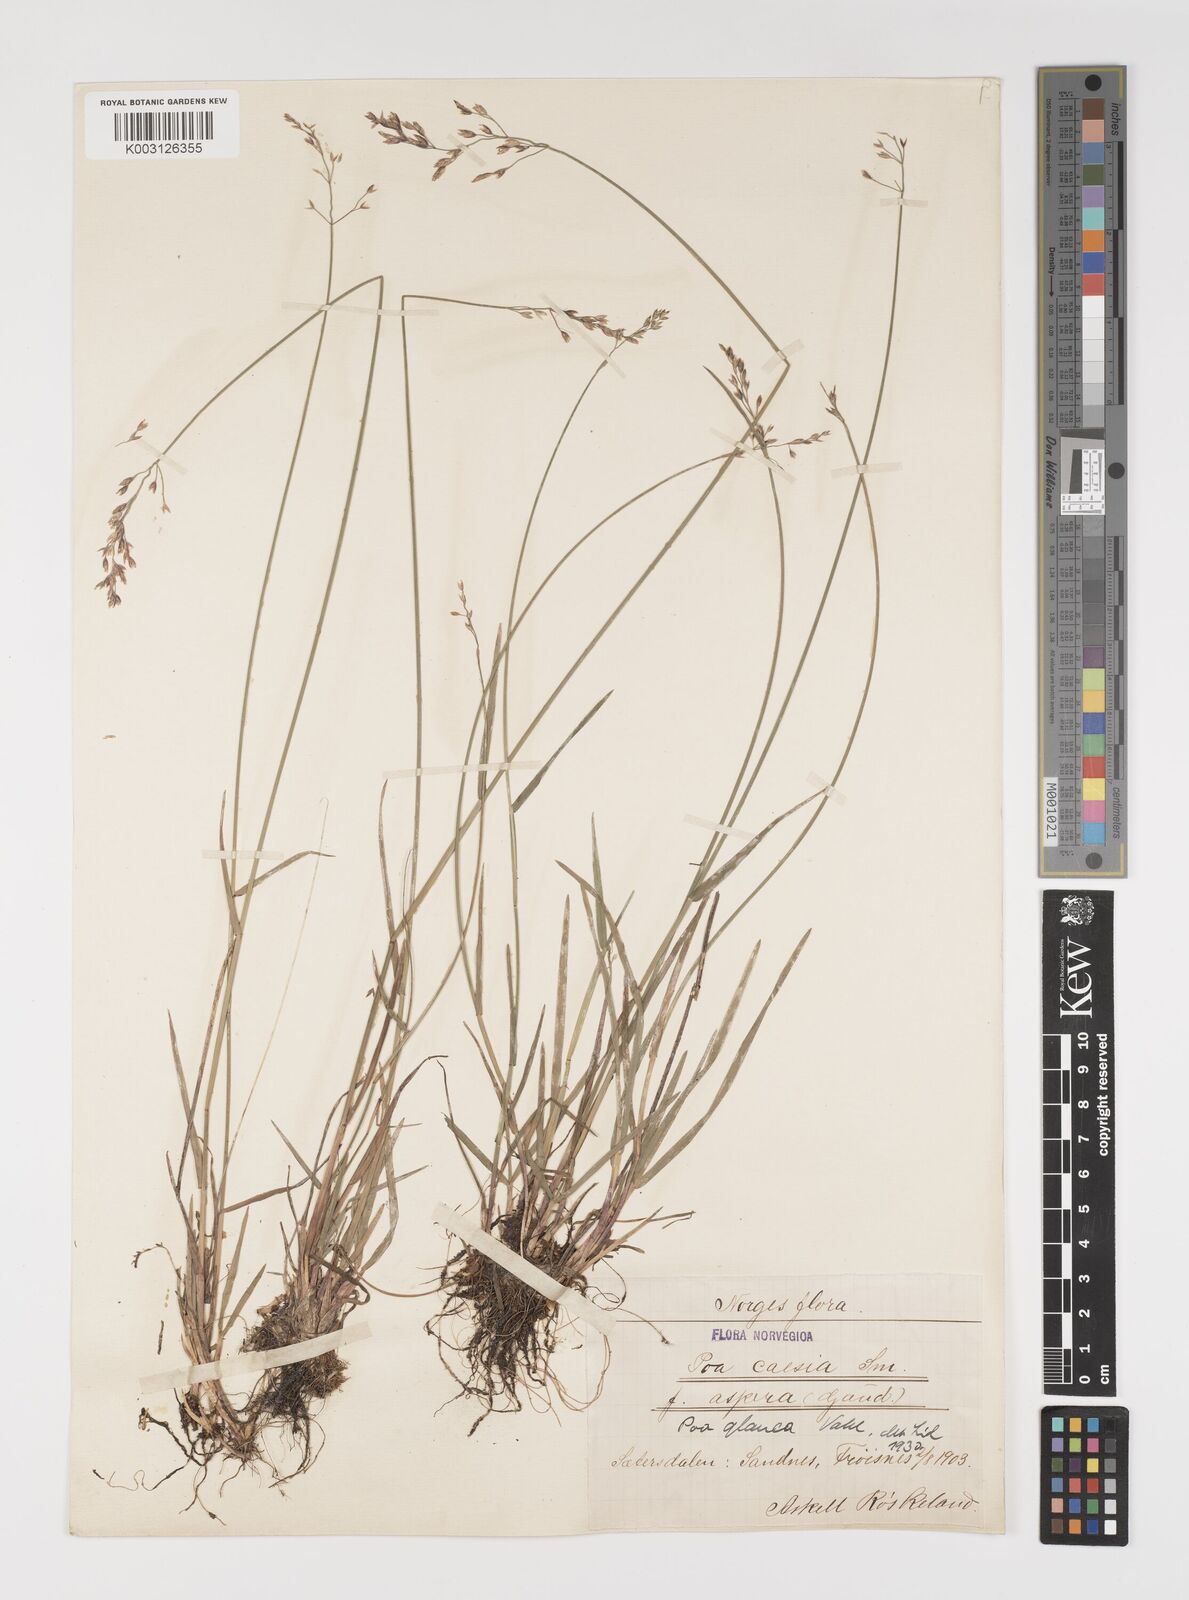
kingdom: Plantae
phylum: Tracheophyta
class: Liliopsida
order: Poales
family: Poaceae
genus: Poa
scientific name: Poa glauca
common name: Glaucous bluegrass
